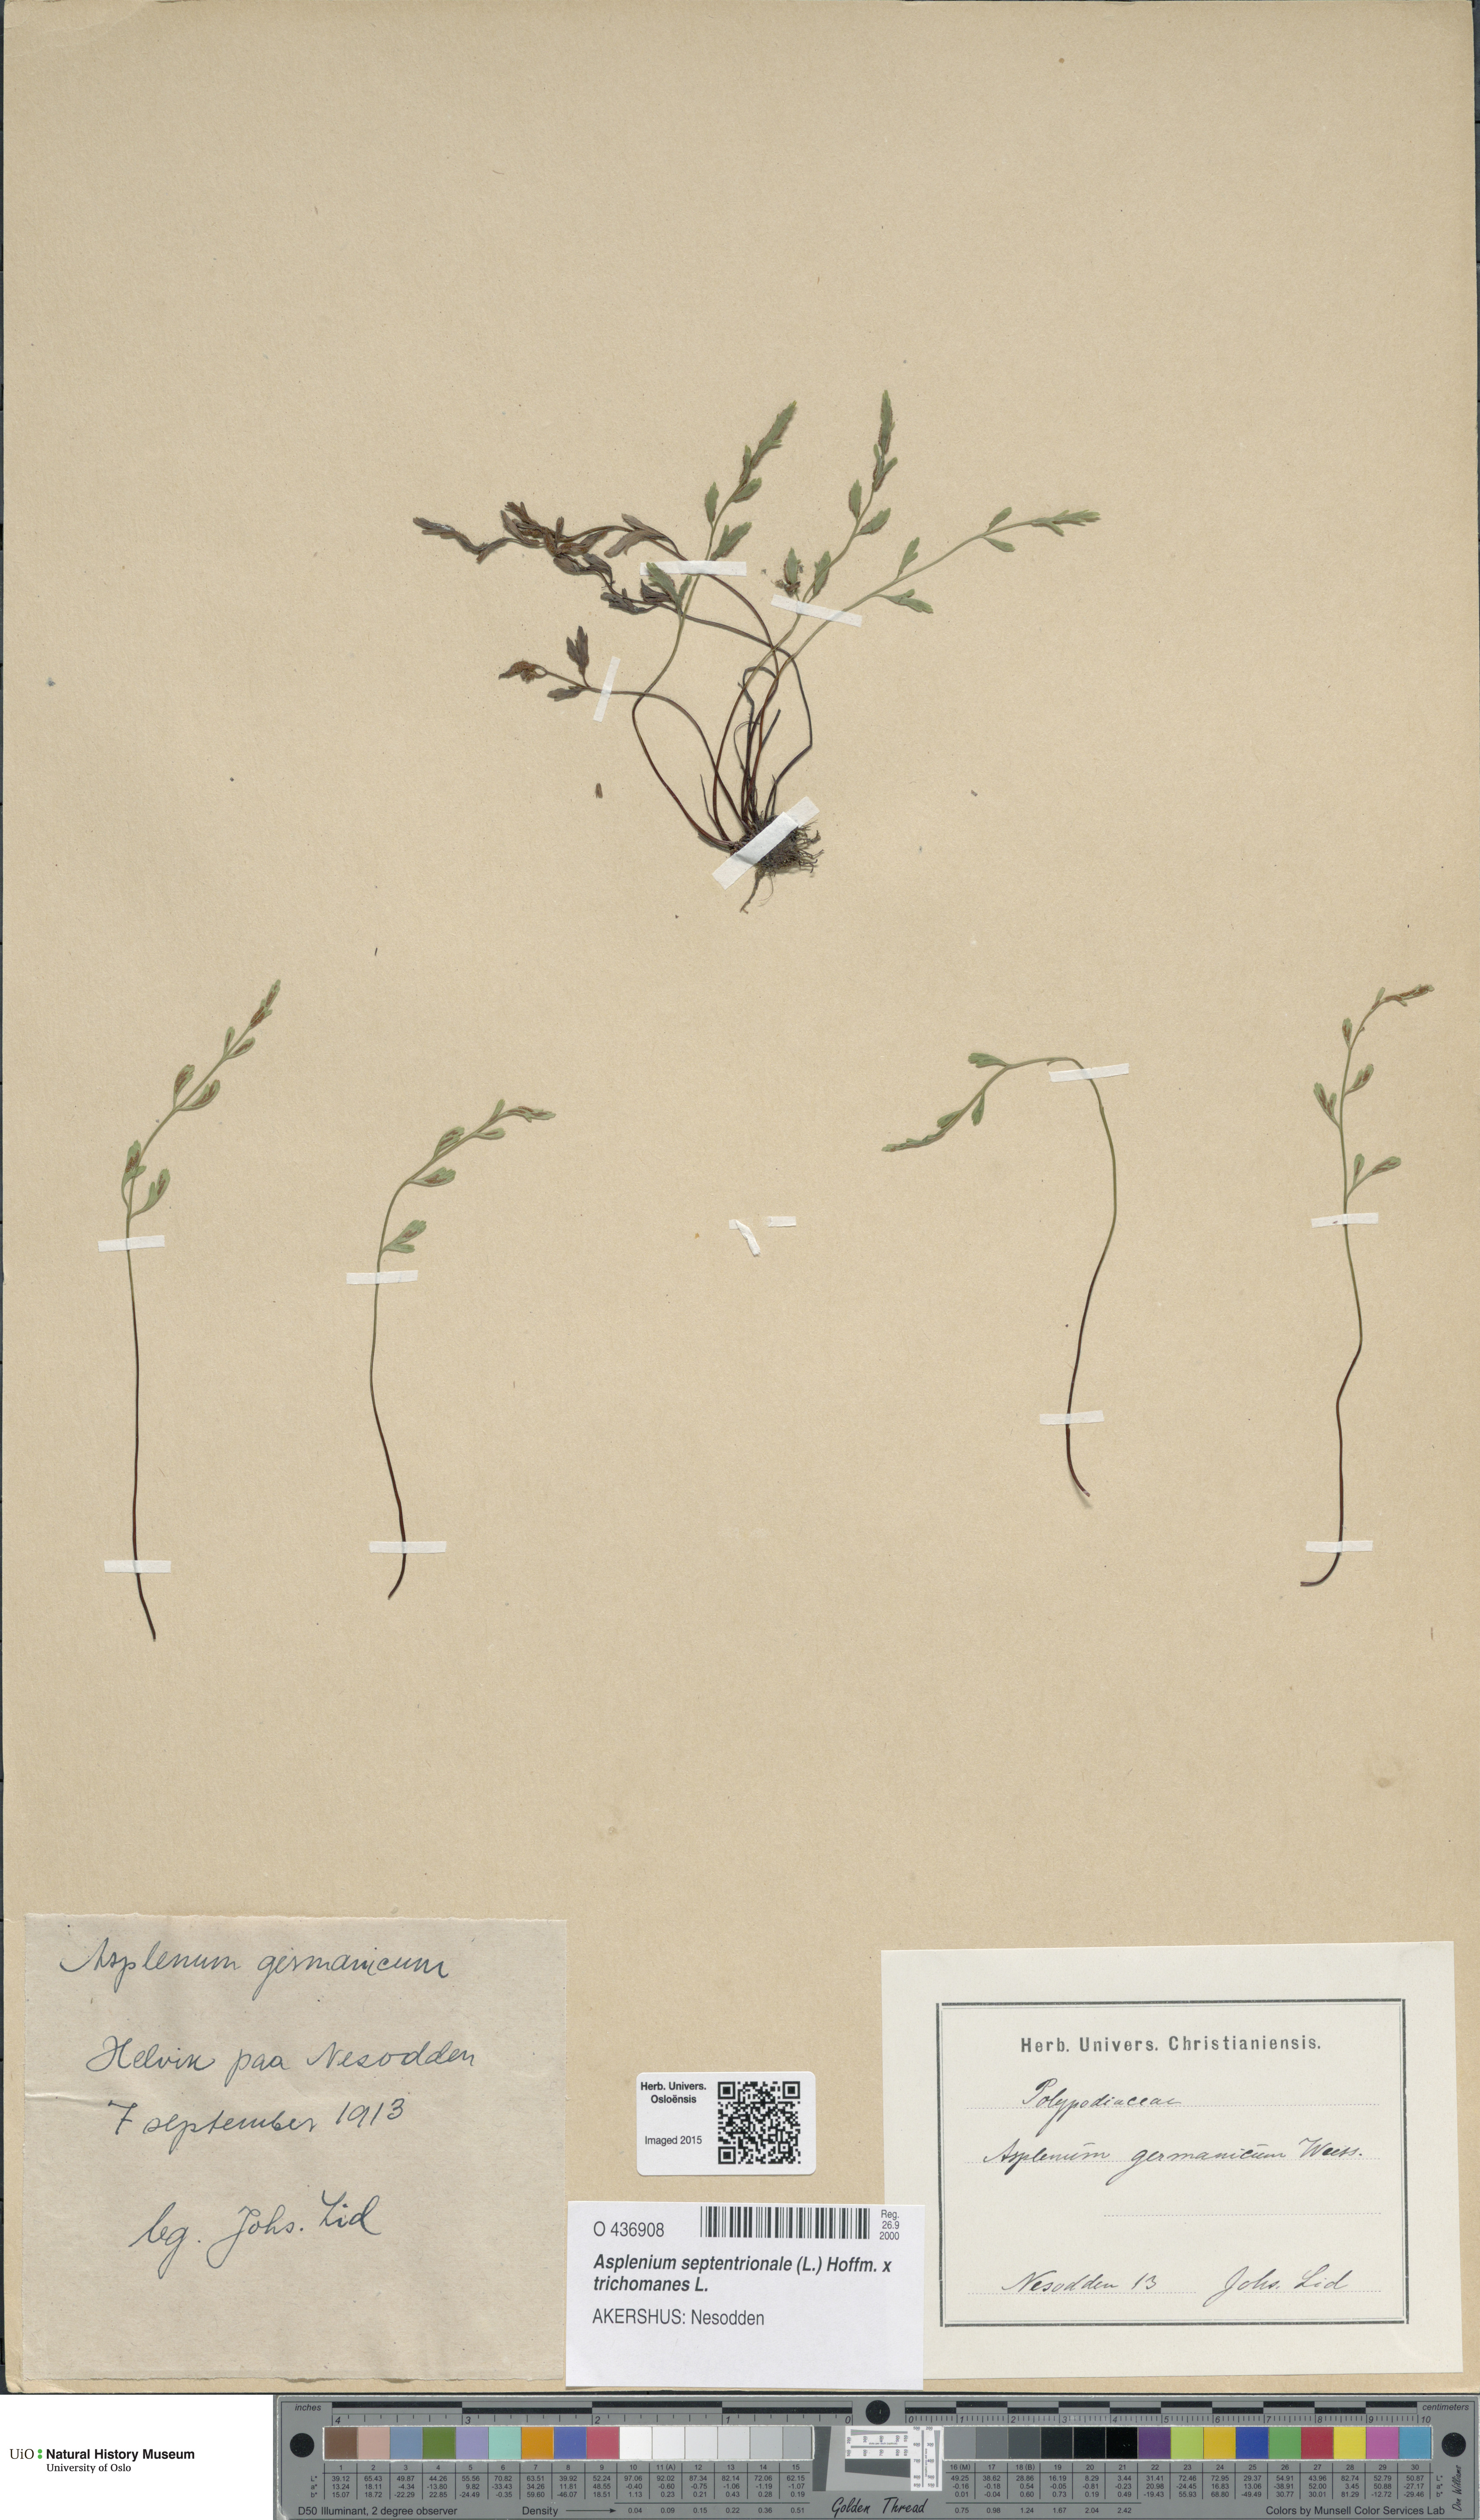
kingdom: Plantae
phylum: Tracheophyta
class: Polypodiopsida
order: Polypodiales
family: Aspleniaceae
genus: Asplenium
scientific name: Asplenium
